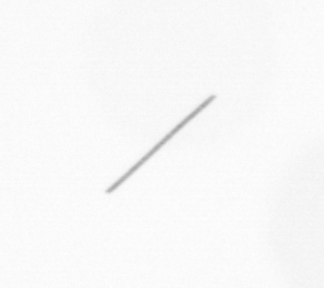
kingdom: Chromista
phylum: Ochrophyta
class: Bacillariophyceae
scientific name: Bacillariophyceae
